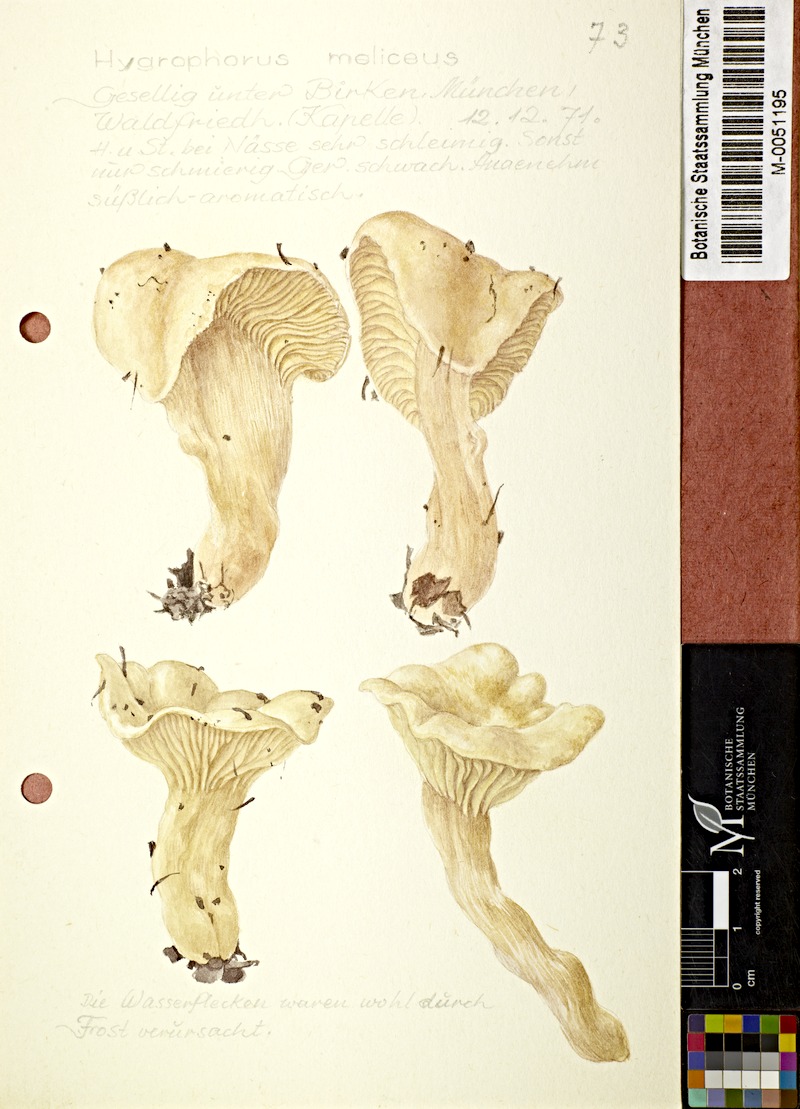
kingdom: Fungi
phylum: Basidiomycota
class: Agaricomycetes
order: Agaricales
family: Hygrophoraceae
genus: Hygrophorus
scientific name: Hygrophorus hedrychii
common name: Sweet woodwax
